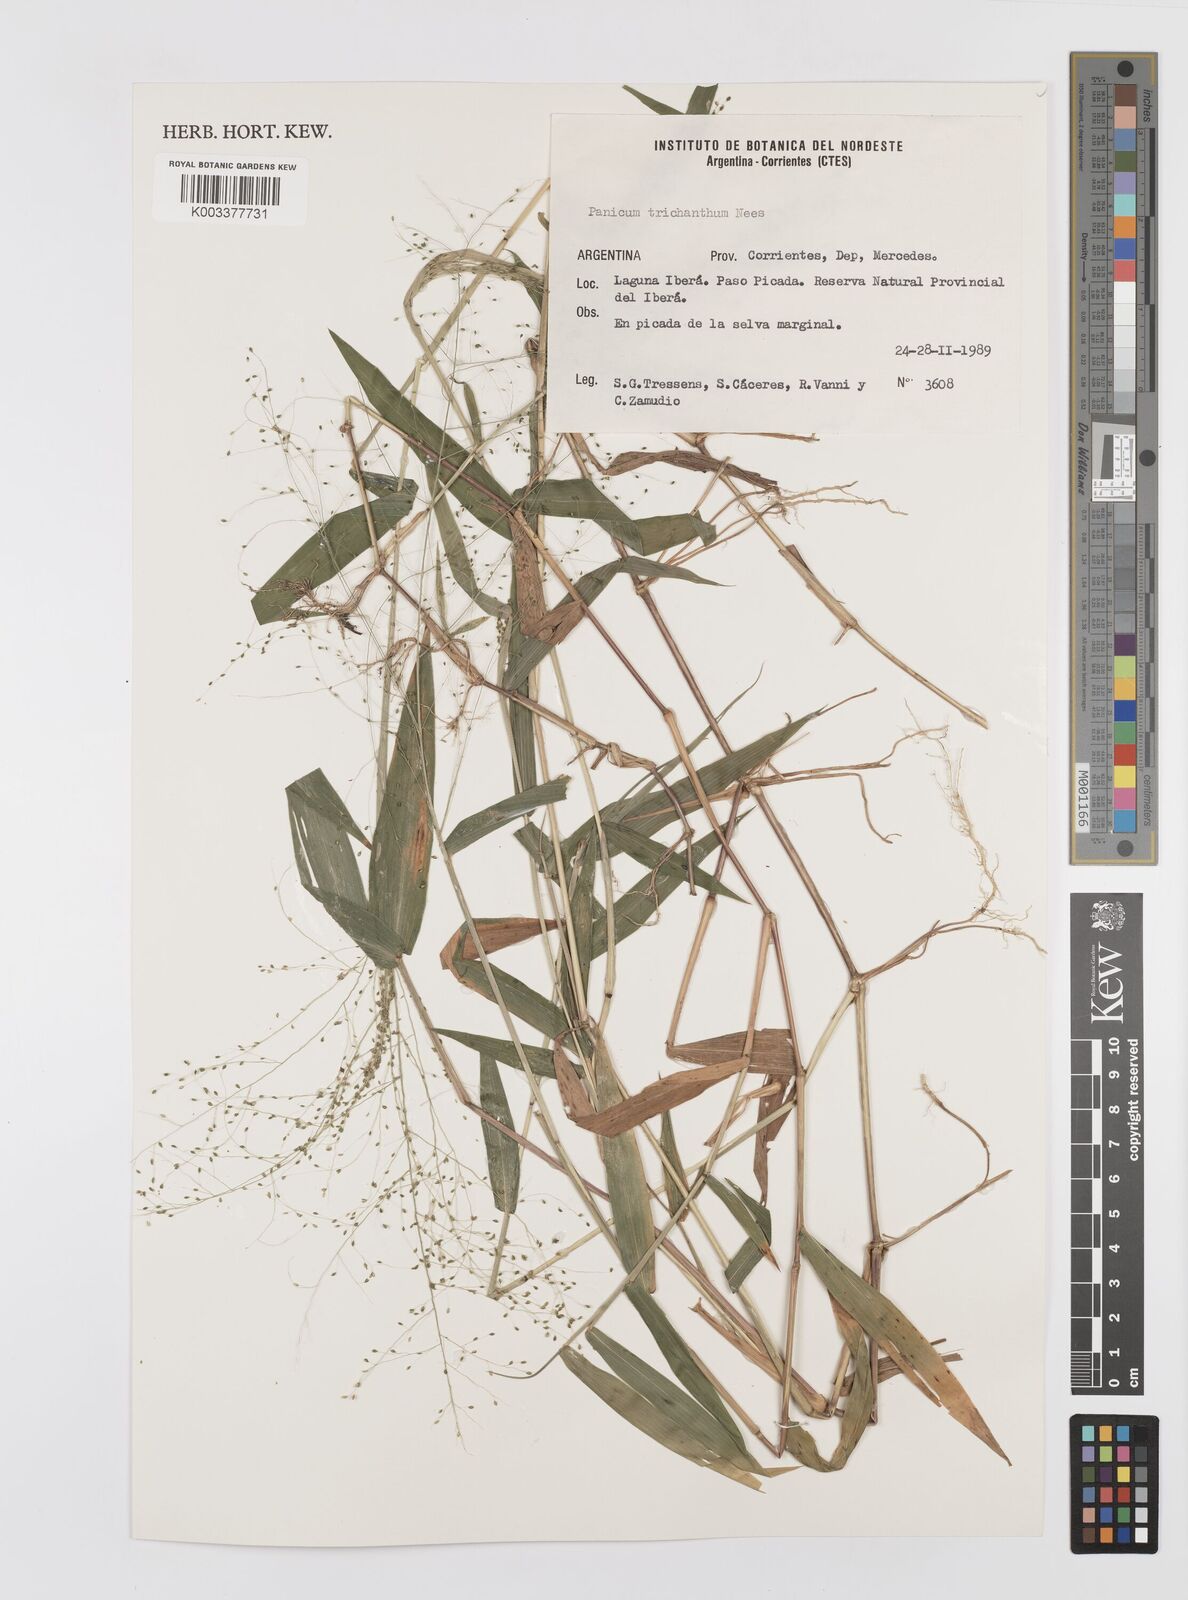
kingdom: Plantae
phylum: Tracheophyta
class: Liliopsida
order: Poales
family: Poaceae
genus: Panicum
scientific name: Panicum trichanthum
